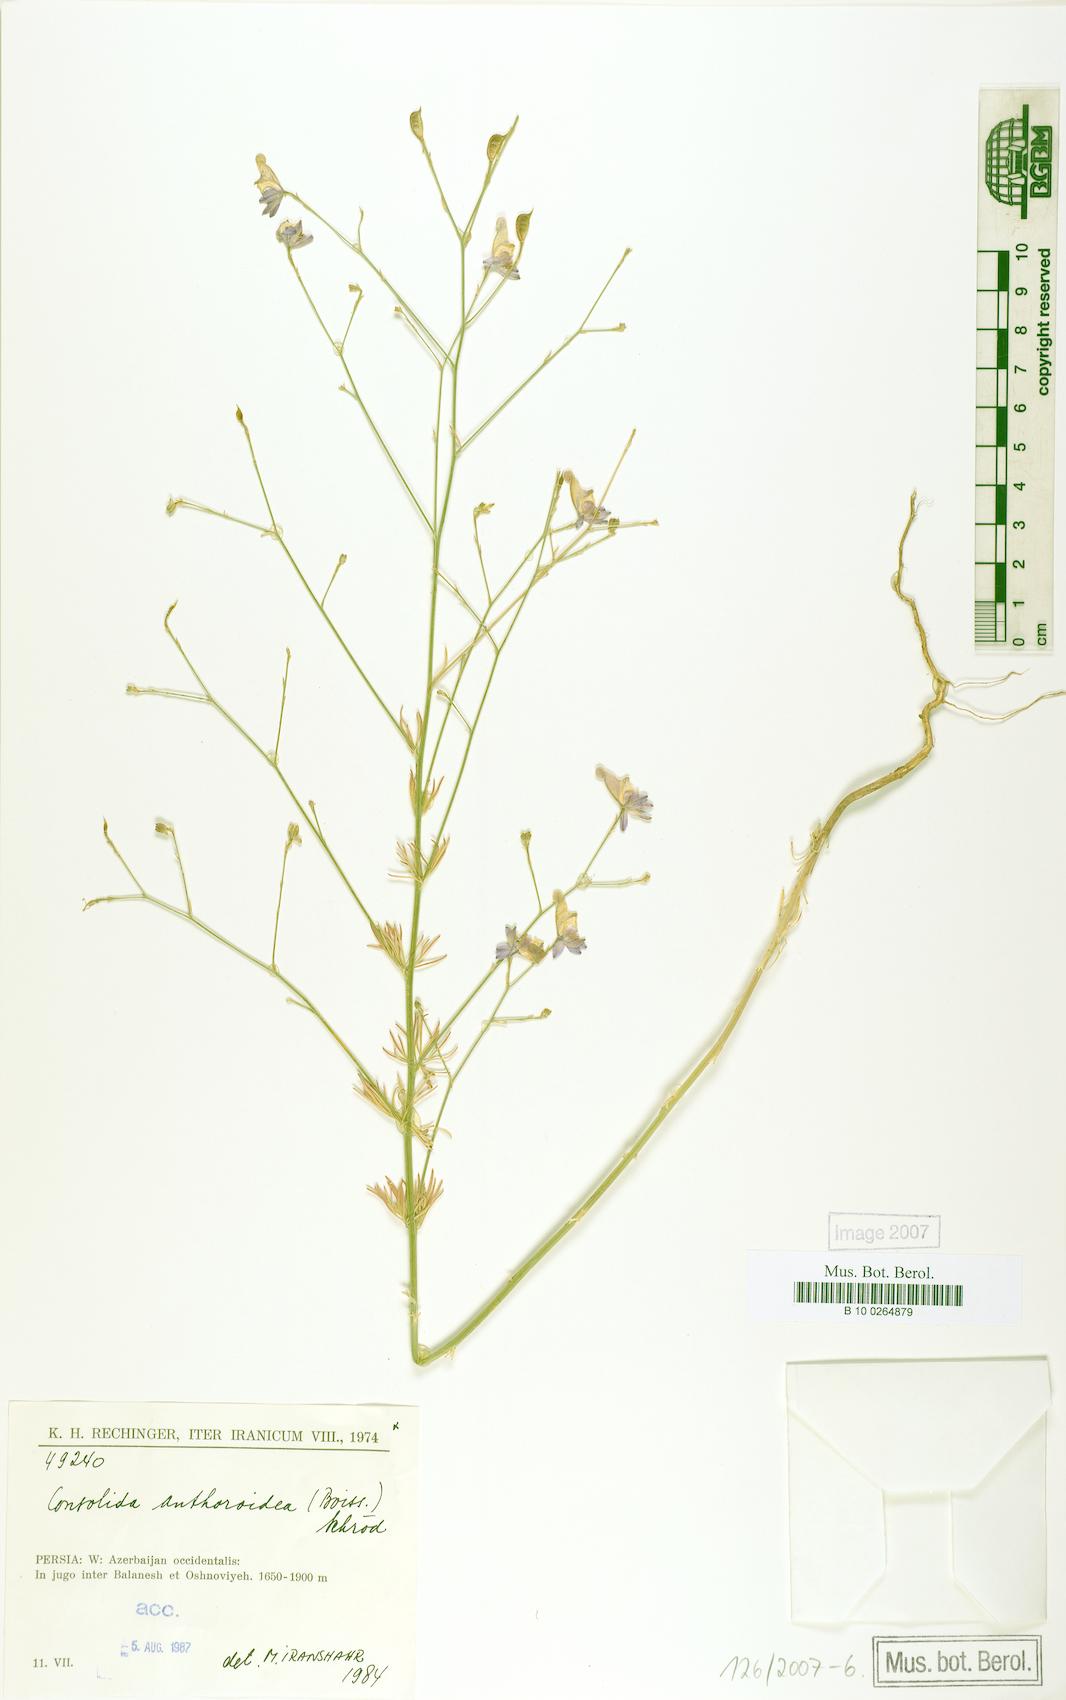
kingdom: Plantae
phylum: Tracheophyta
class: Magnoliopsida
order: Ranunculales
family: Ranunculaceae
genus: Delphinium
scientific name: Delphinium anthoroideum
